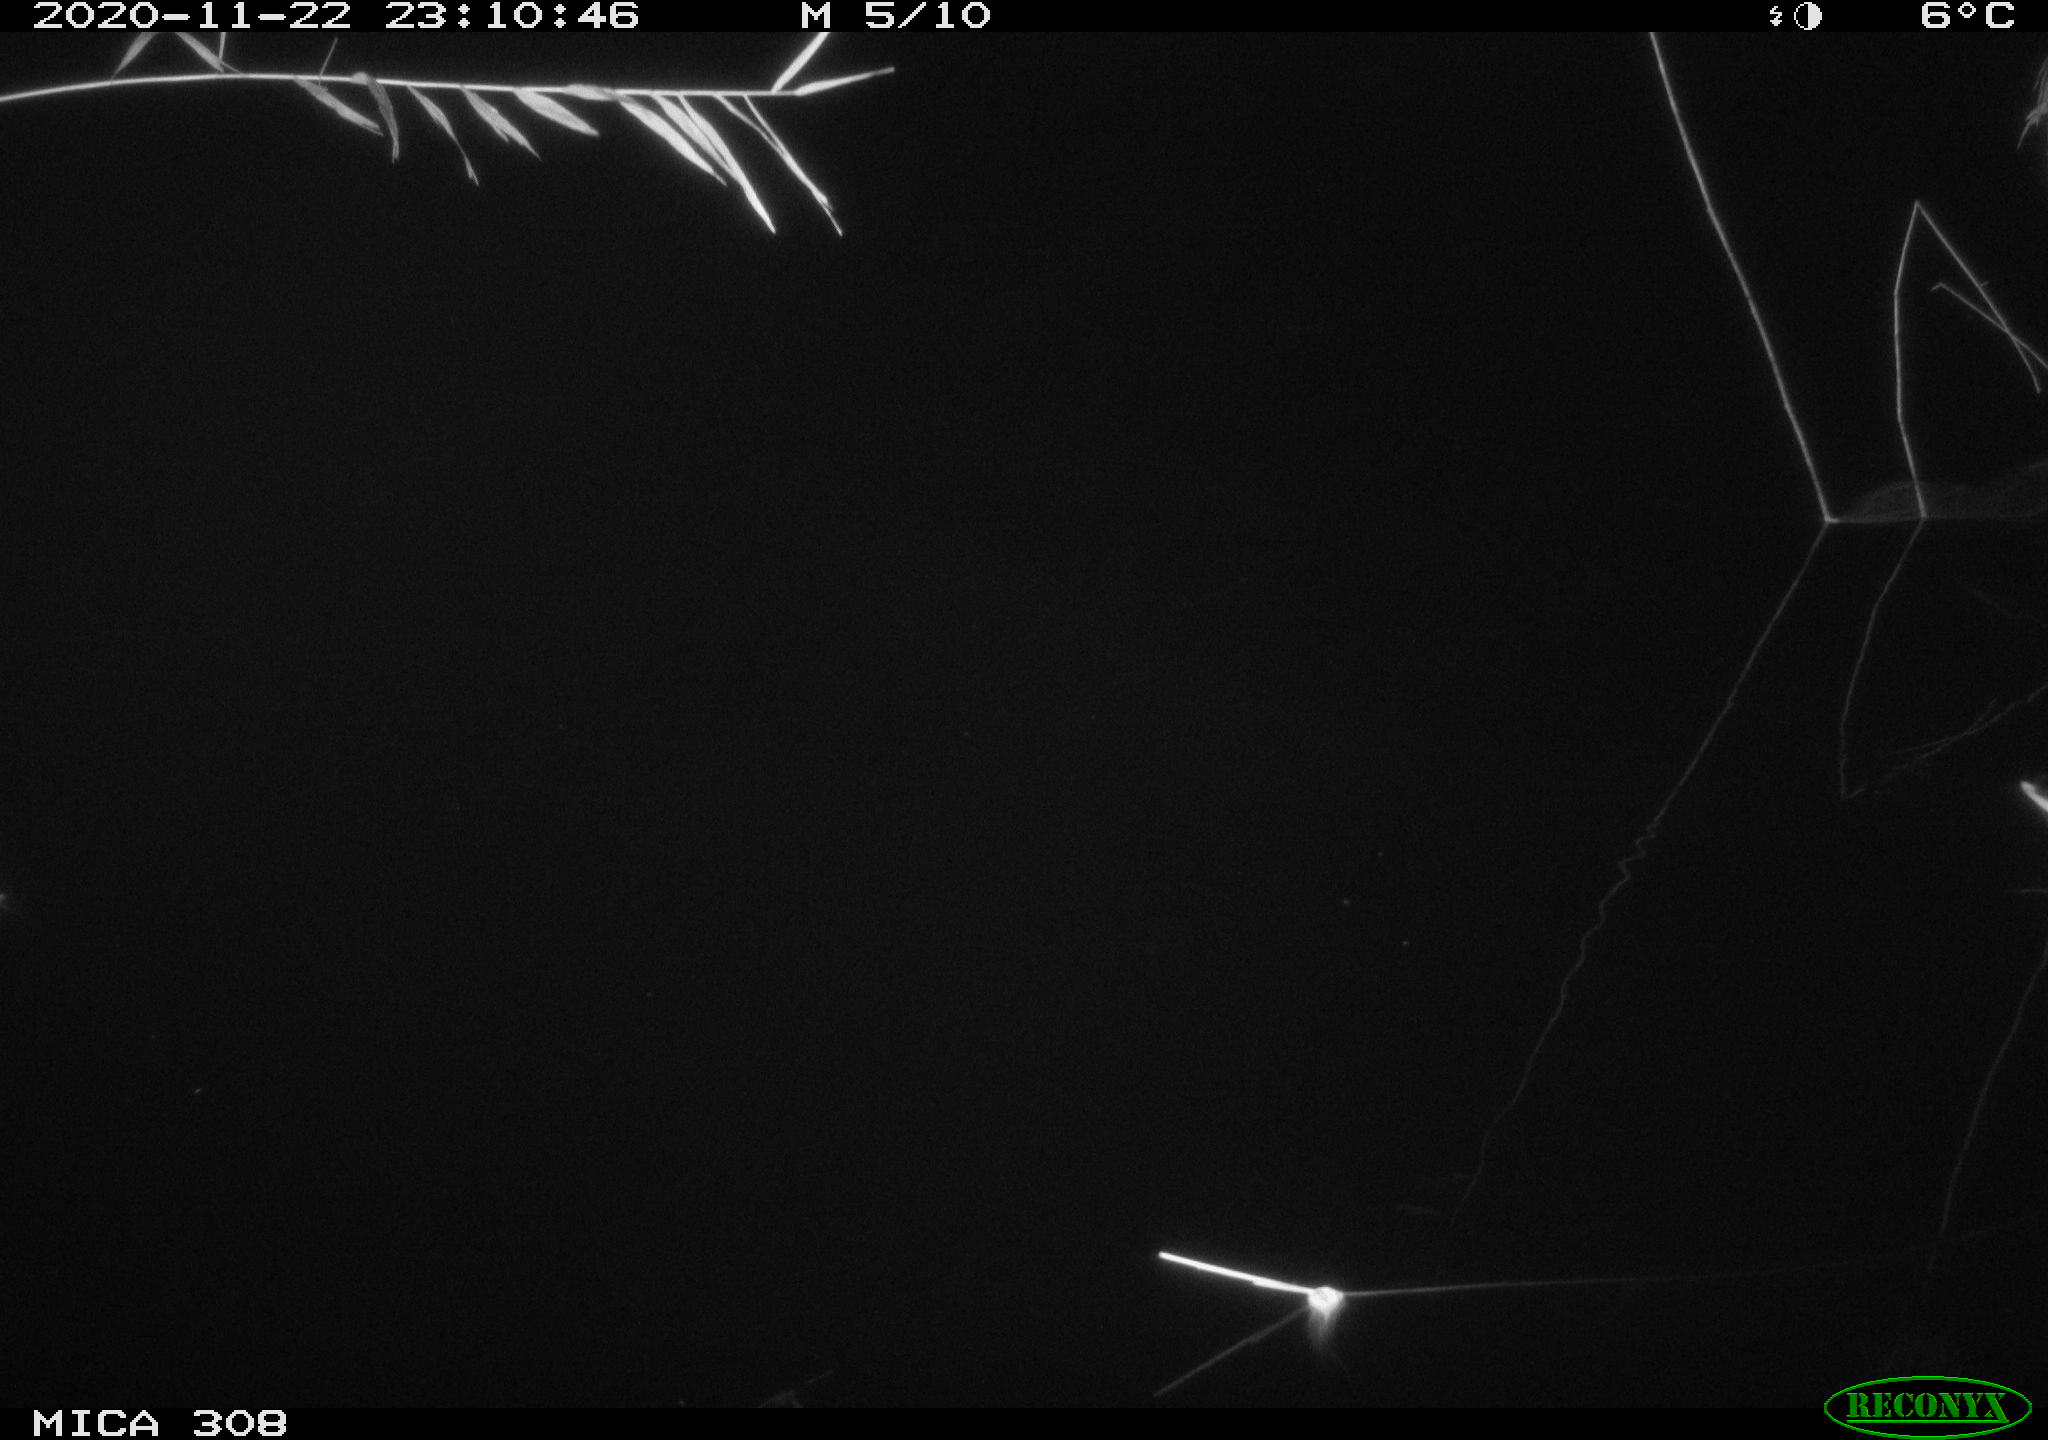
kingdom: Animalia
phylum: Chordata
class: Aves
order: Anseriformes
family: Anatidae
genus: Anas
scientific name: Anas platyrhynchos
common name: Mallard
